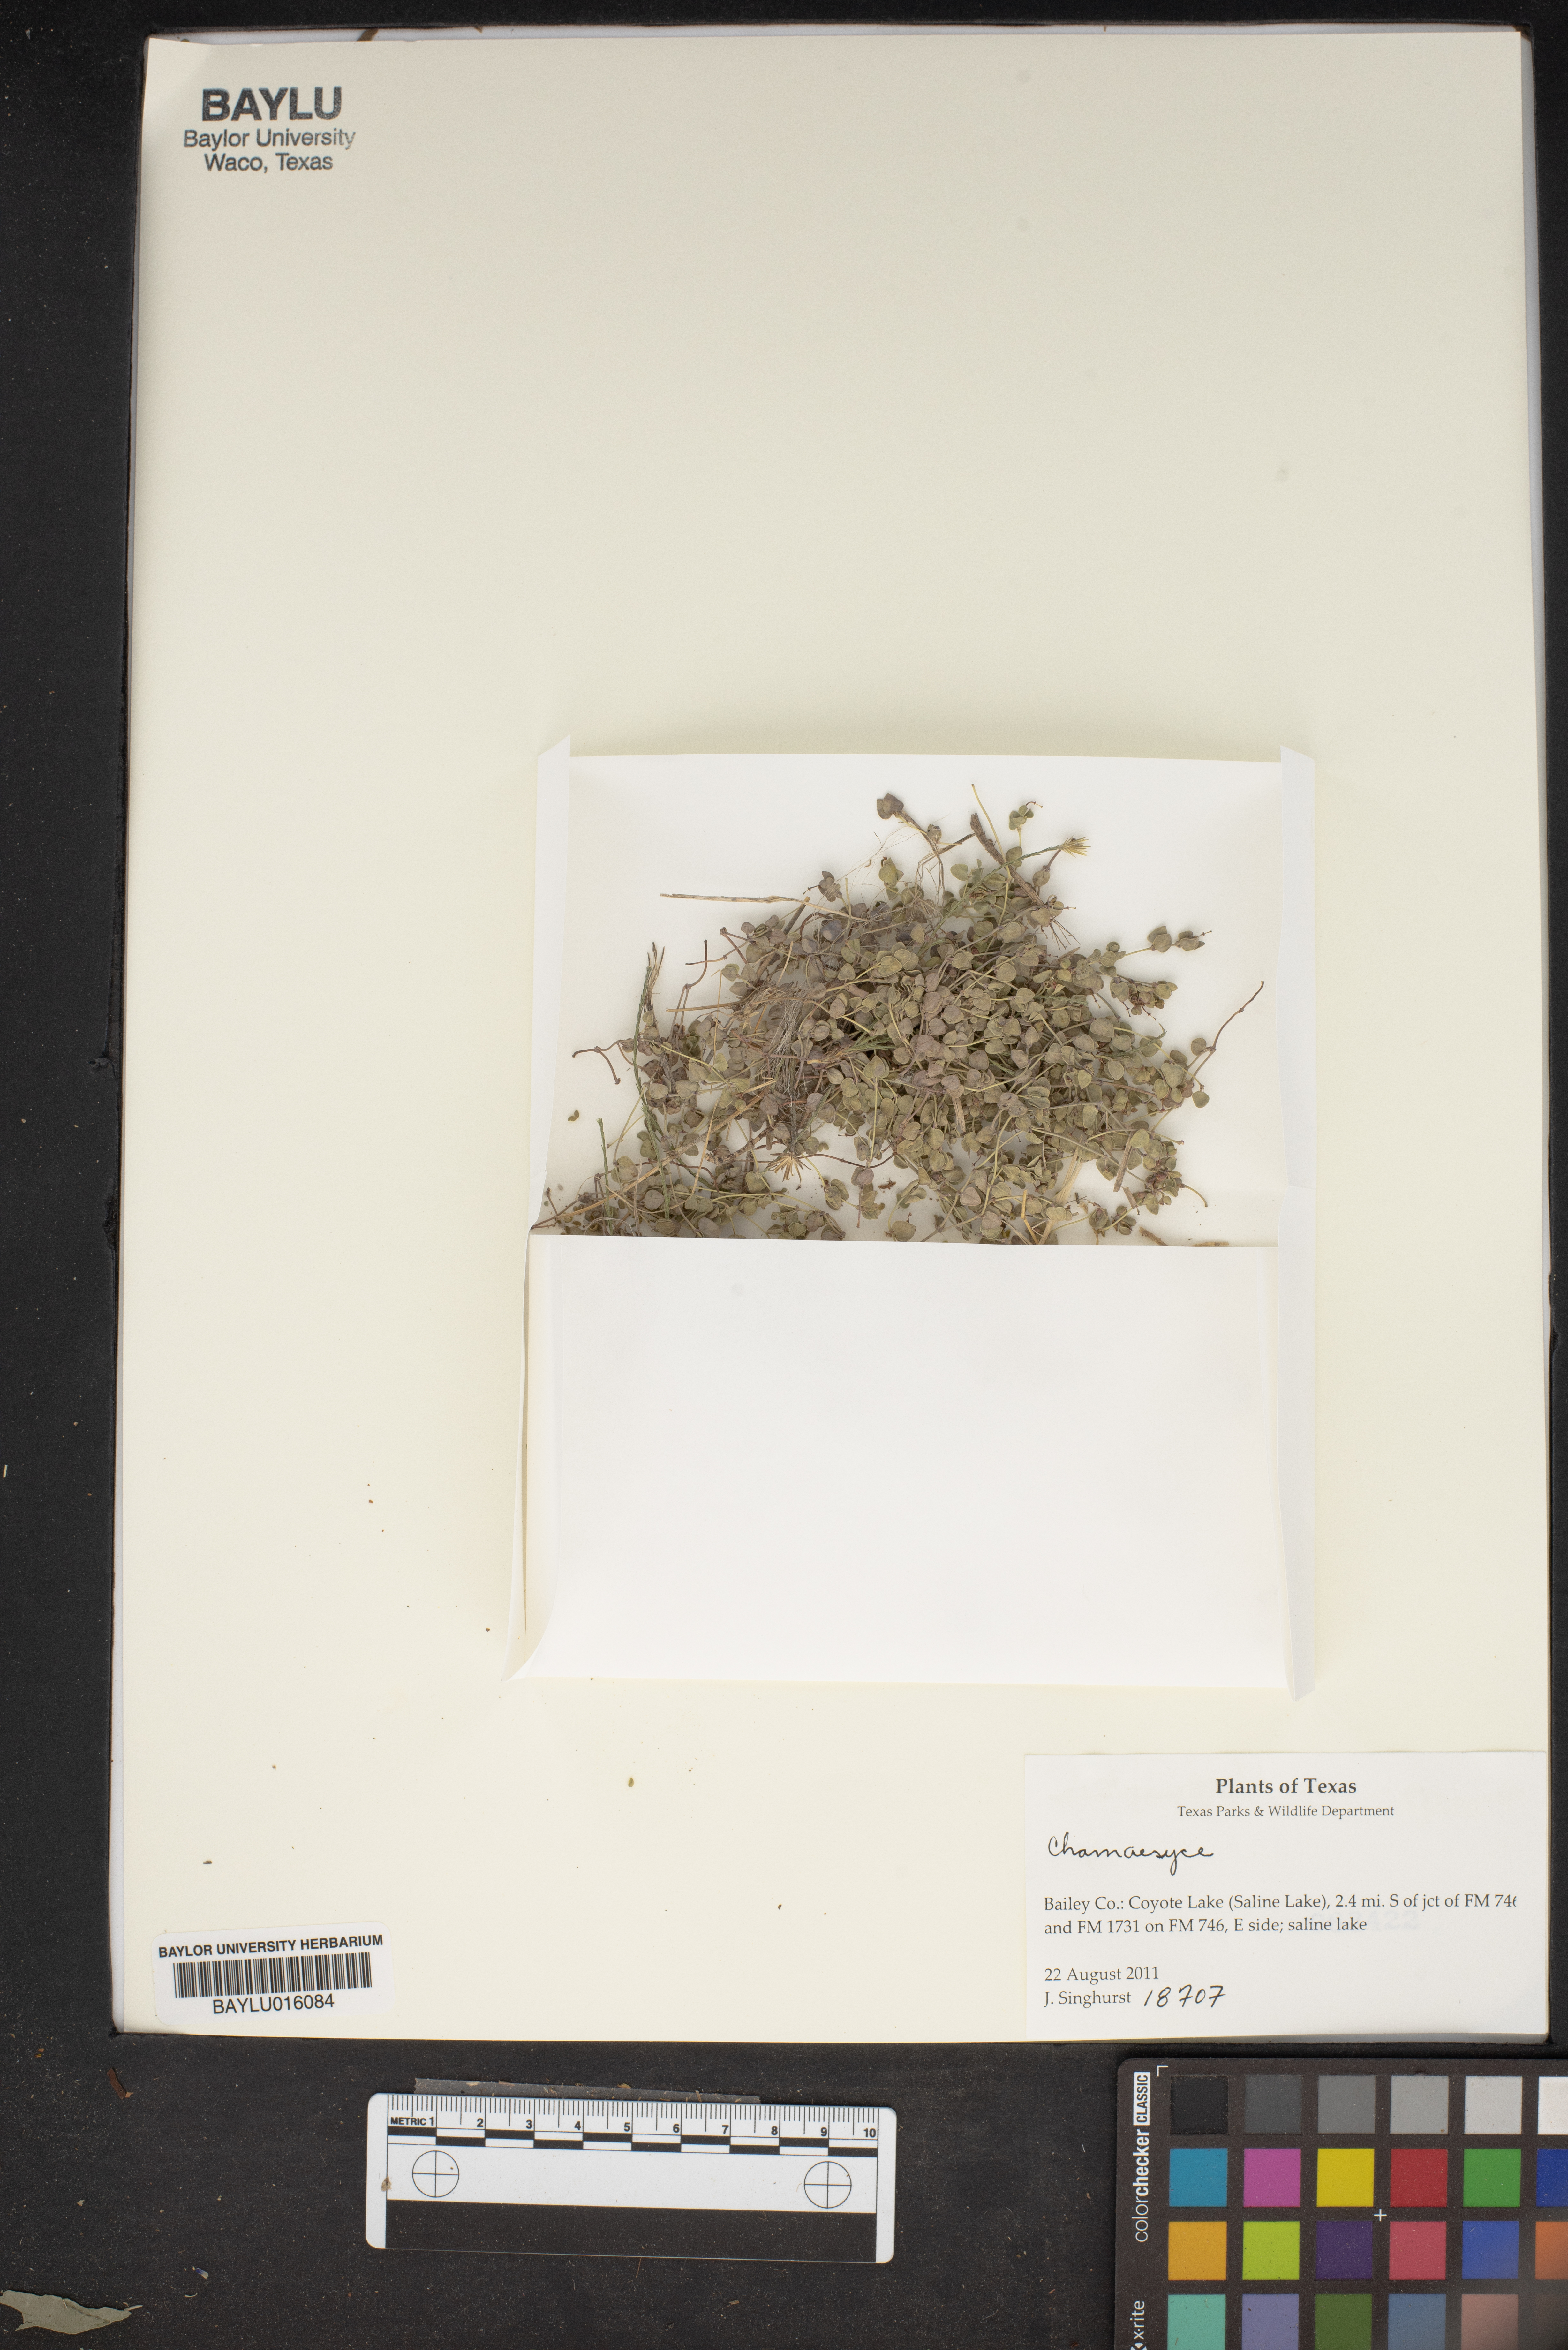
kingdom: Plantae
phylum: Tracheophyta
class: Magnoliopsida
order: Malpighiales
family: Euphorbiaceae
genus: Chamaesyce
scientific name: Chamaesyce
